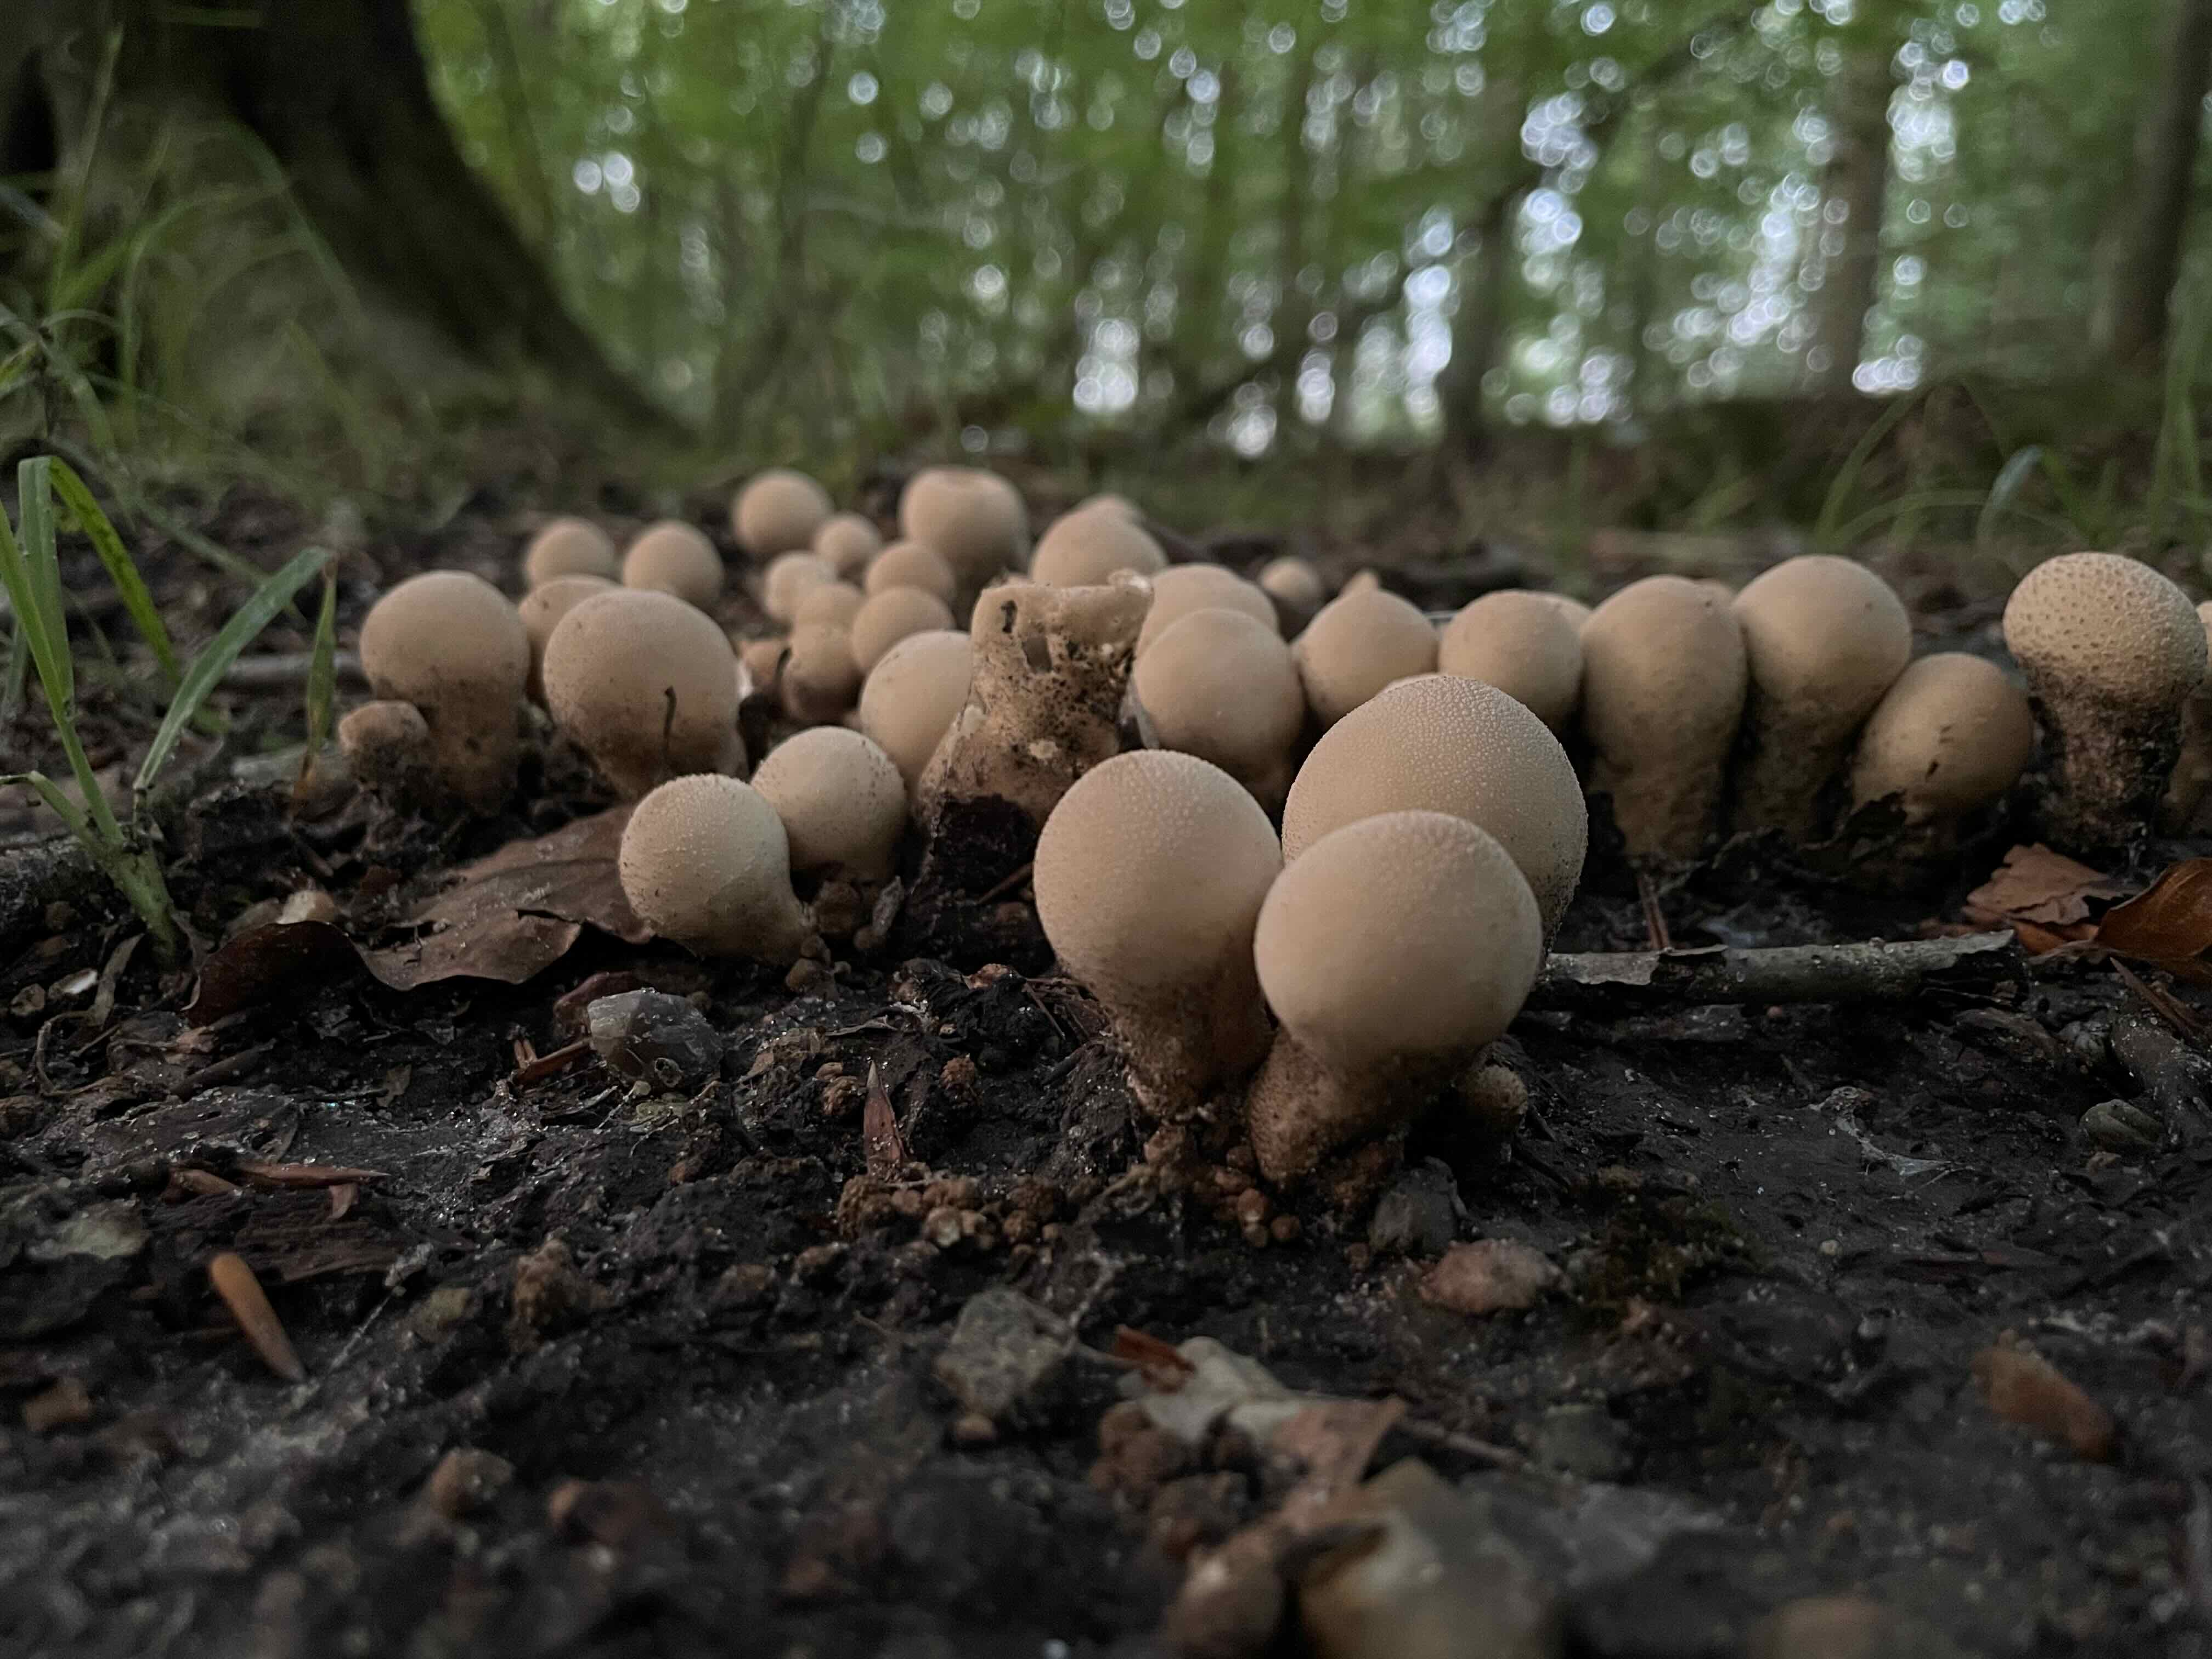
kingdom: Fungi
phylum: Basidiomycota
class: Agaricomycetes
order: Agaricales
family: Lycoperdaceae
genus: Apioperdon
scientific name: Apioperdon pyriforme
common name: pære-støvbold
